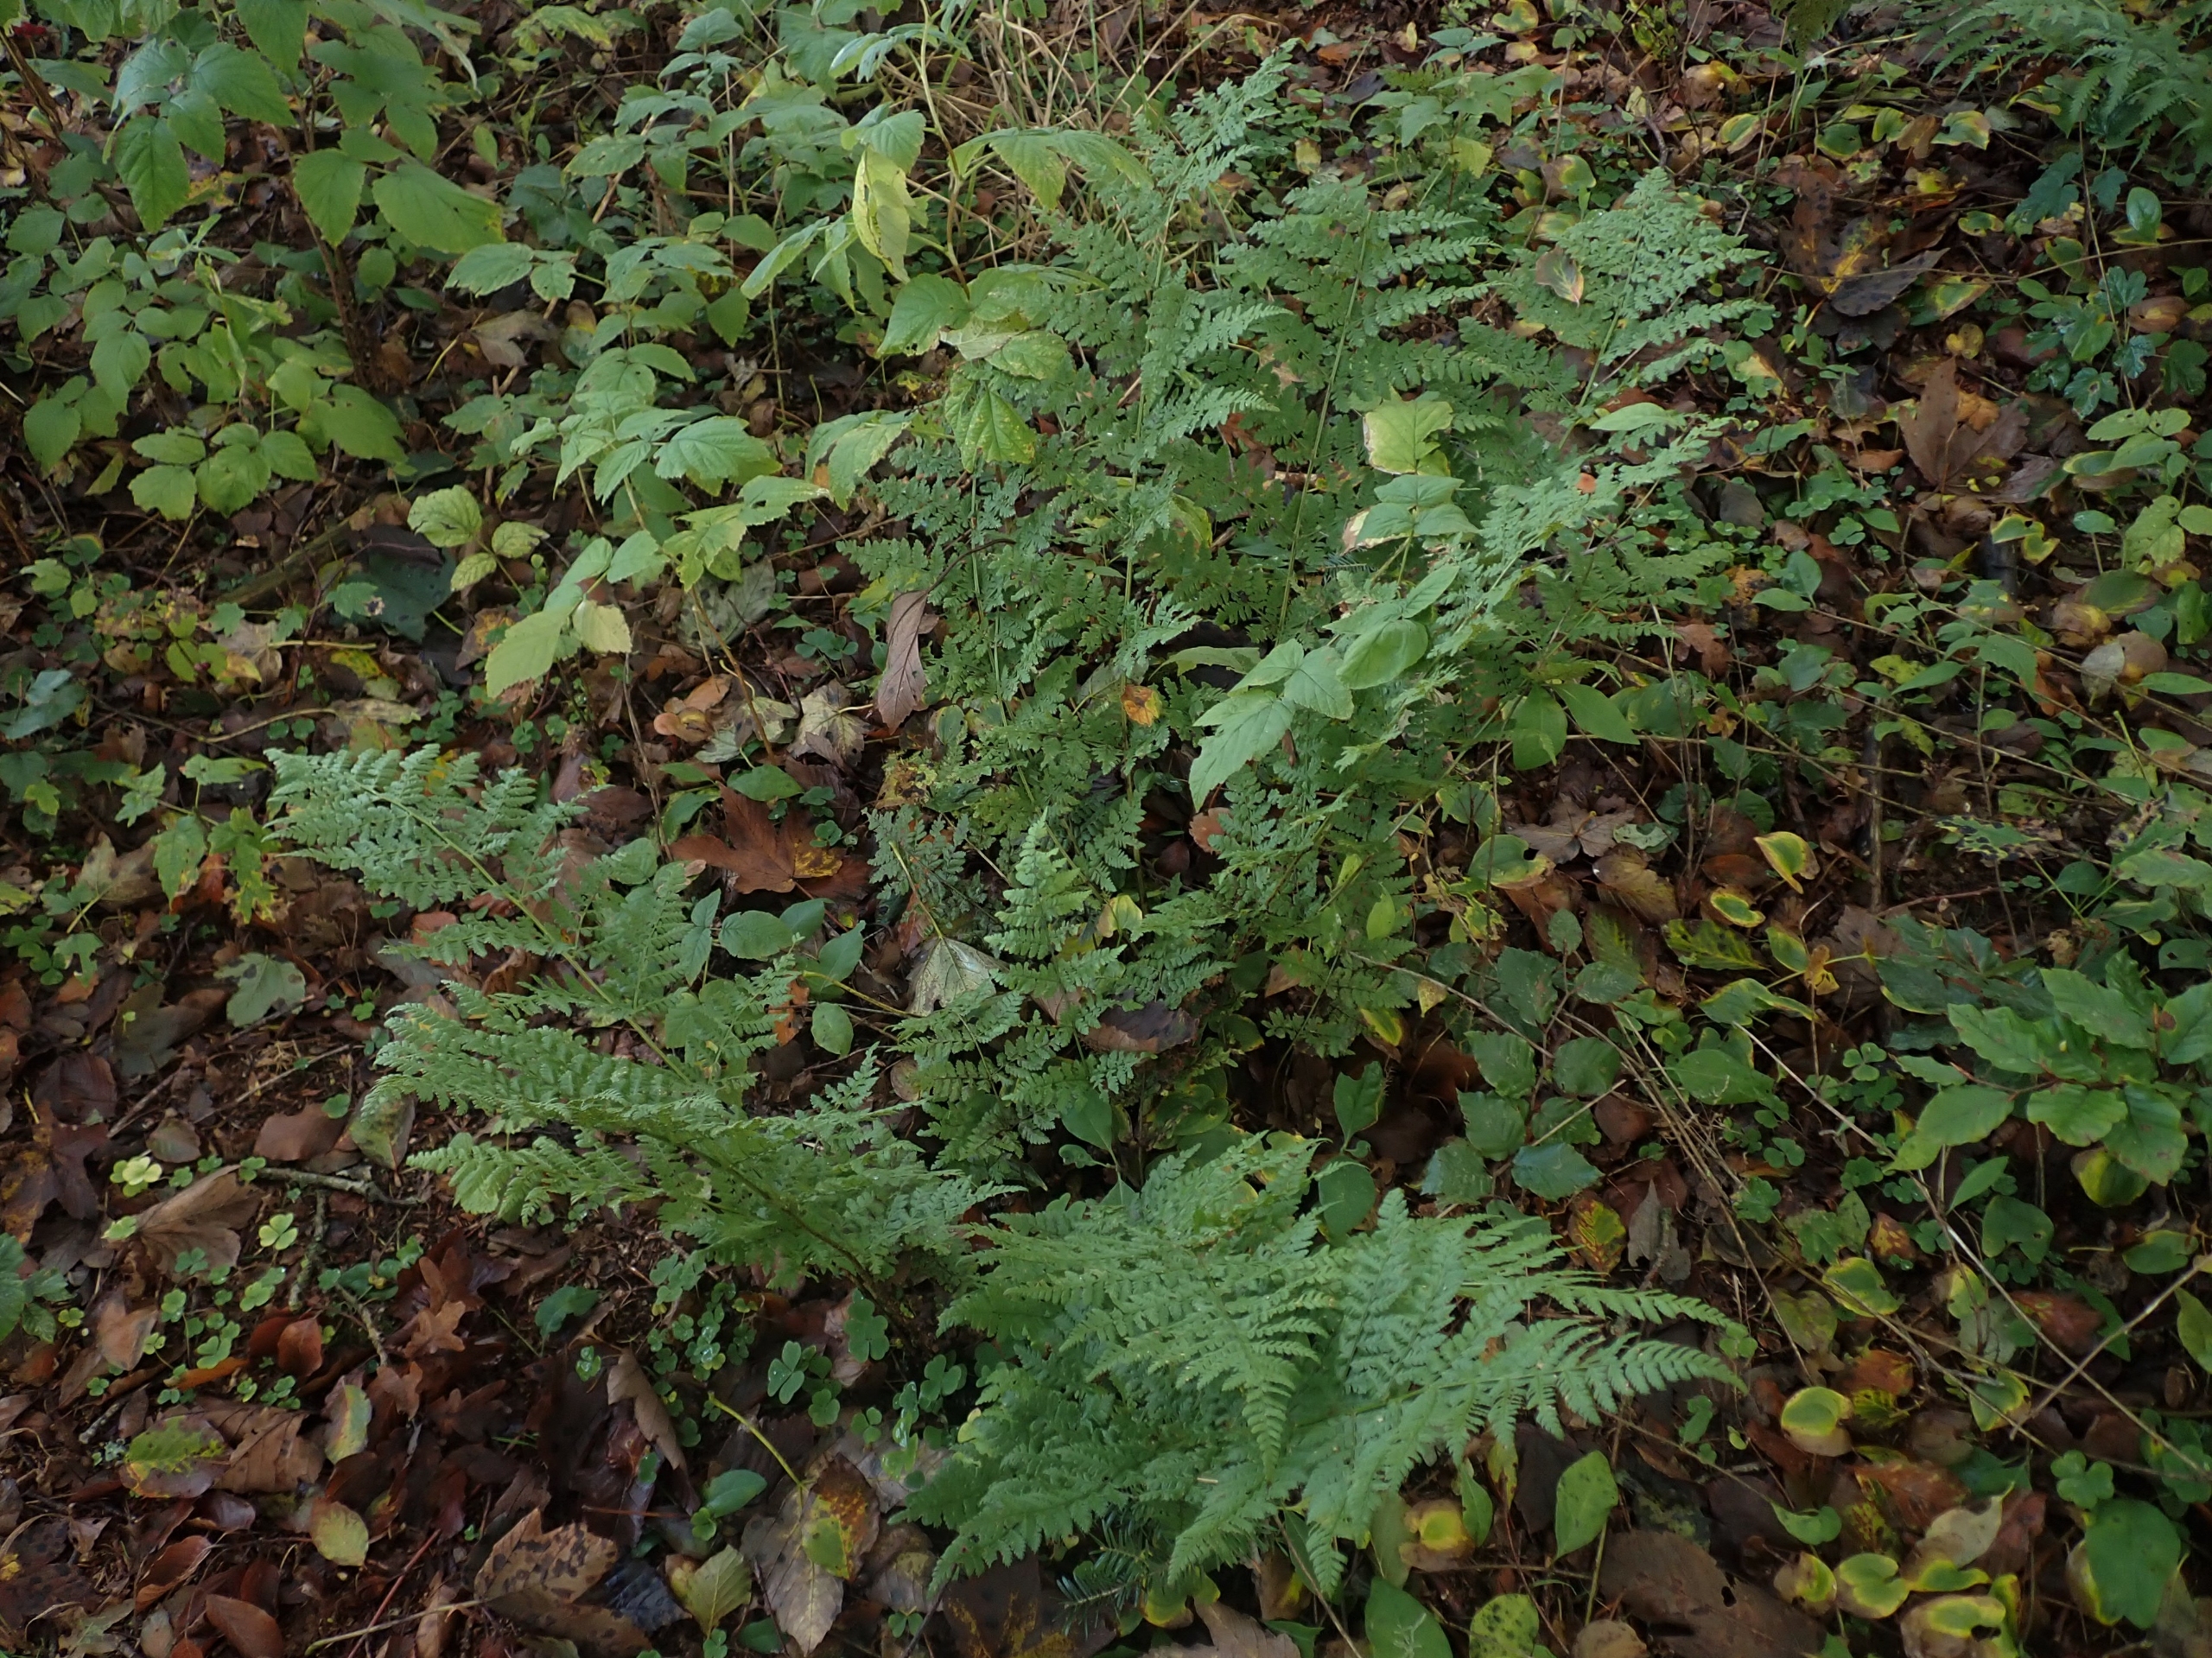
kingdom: Plantae
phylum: Tracheophyta
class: Polypodiopsida
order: Polypodiales
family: Dryopteridaceae
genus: Dryopteris
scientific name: Dryopteris dilatata
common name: Bredbladet mangeløv
